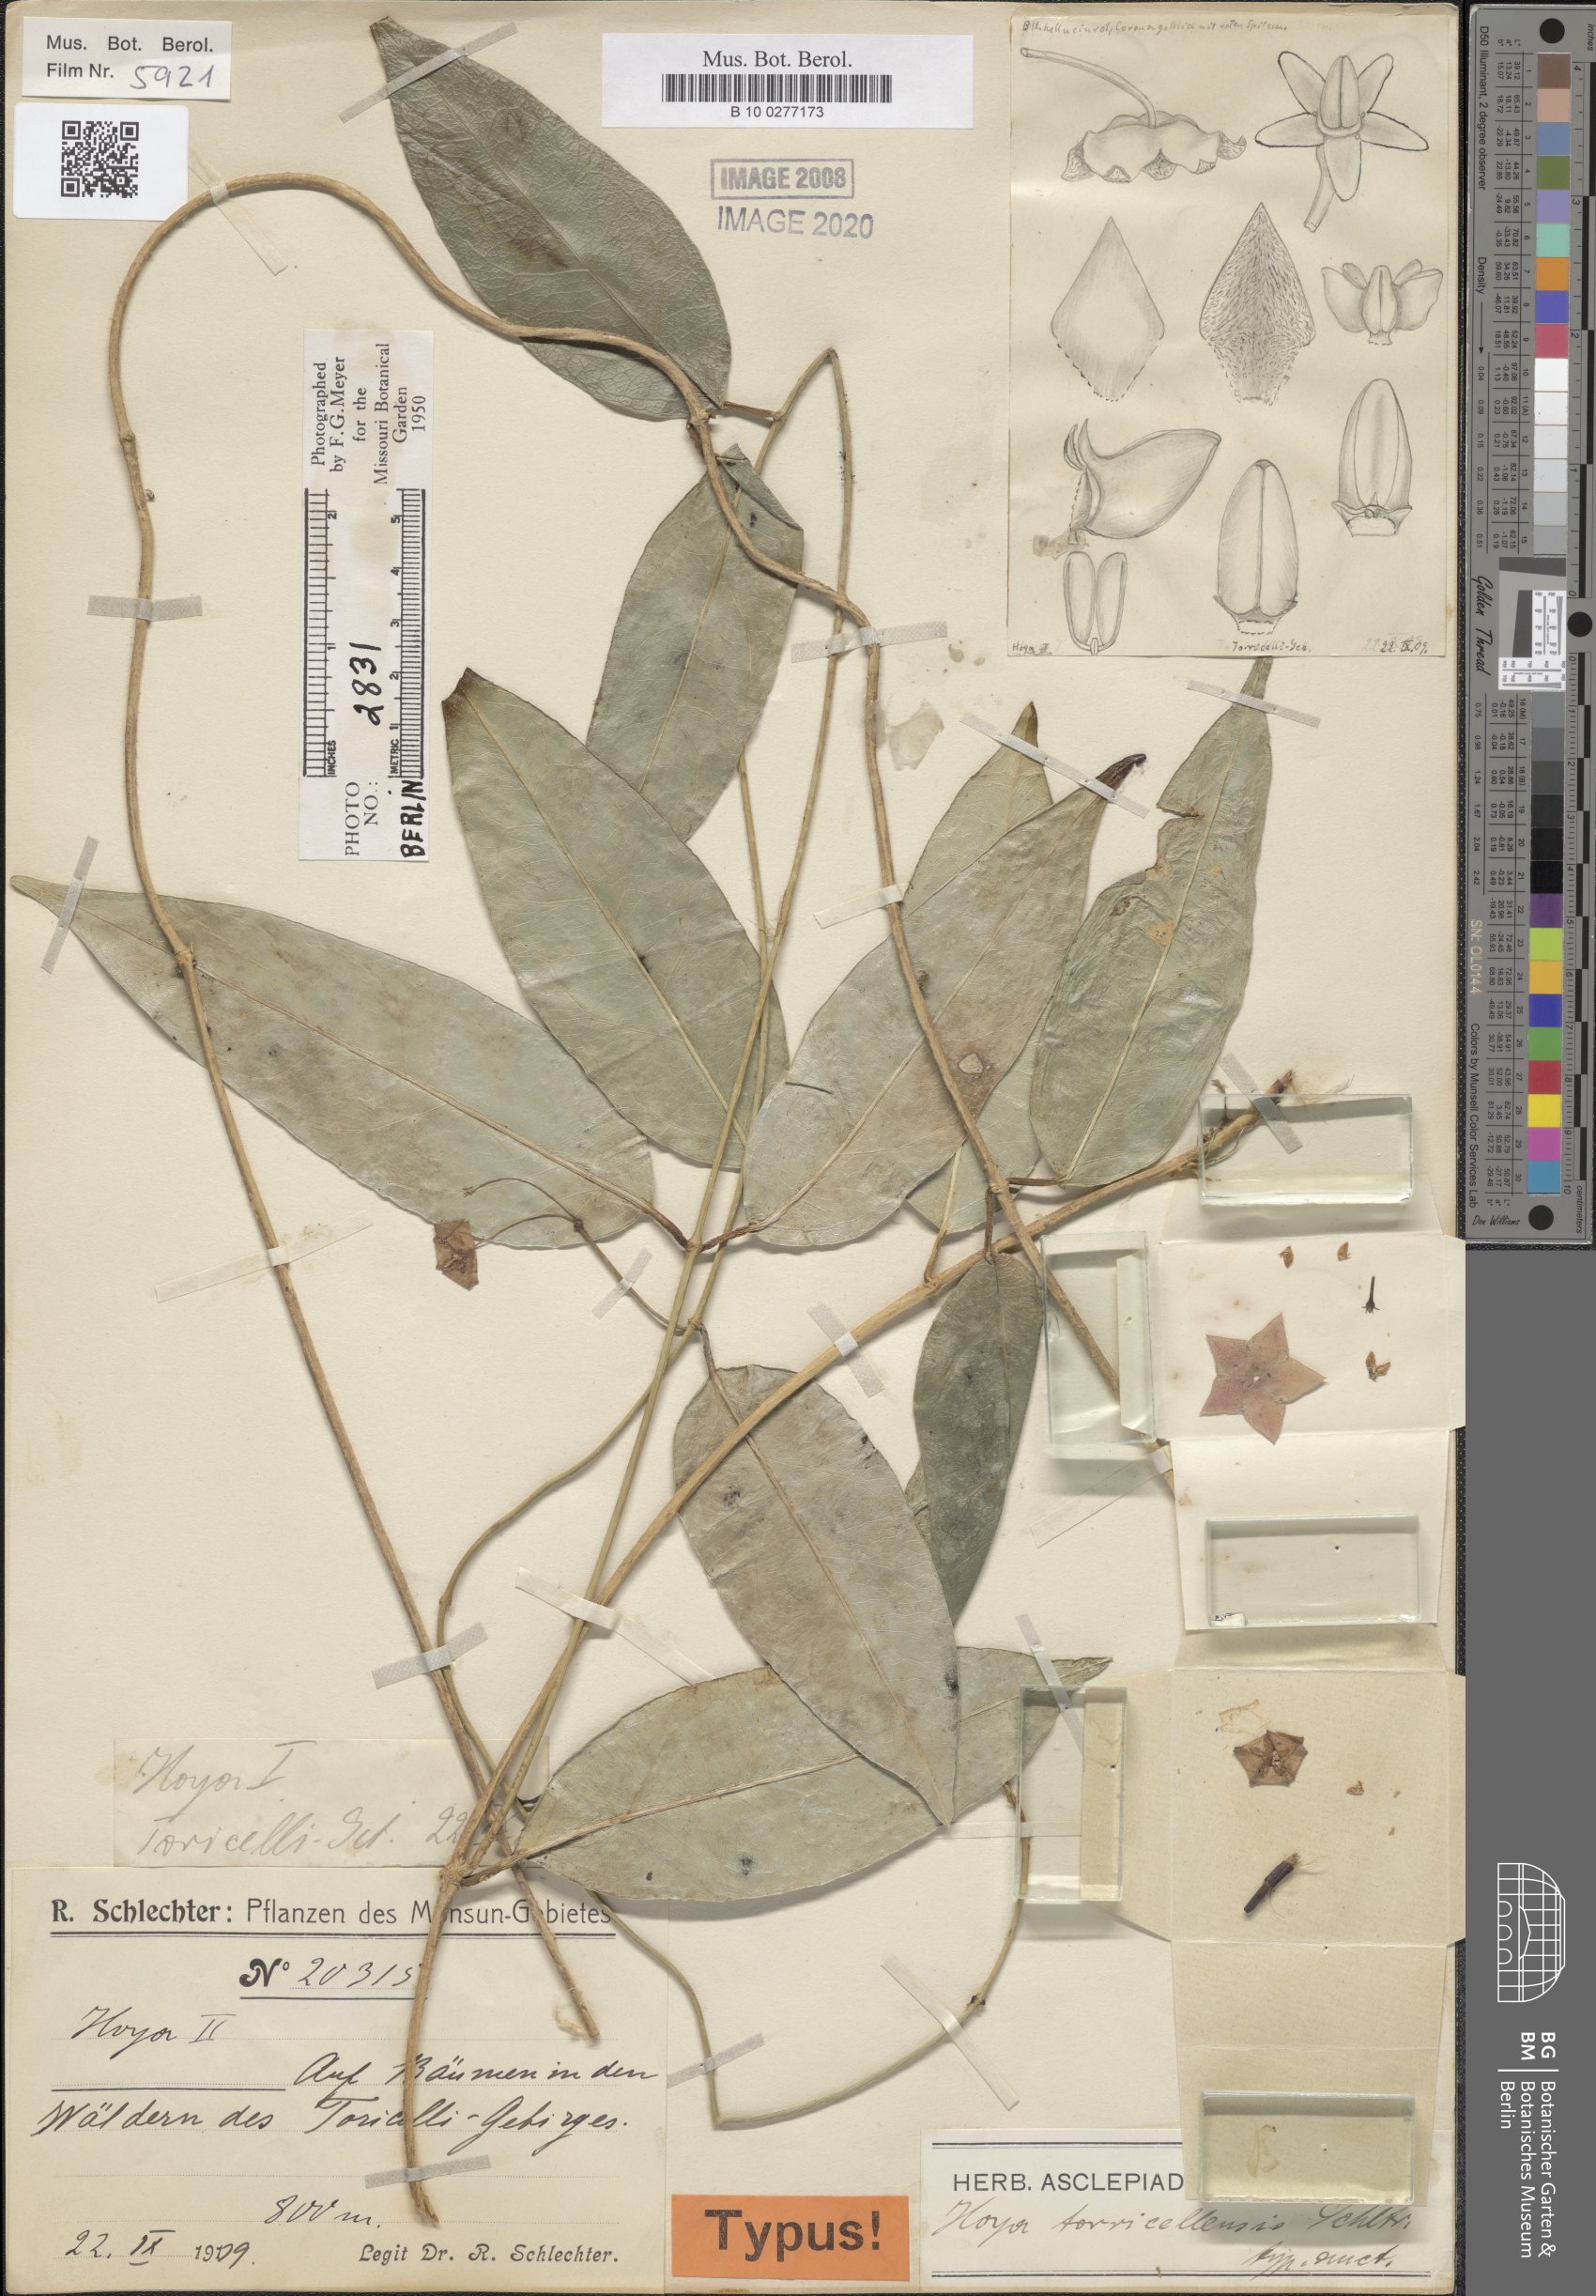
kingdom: Plantae
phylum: Tracheophyta
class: Magnoliopsida
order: Gentianales
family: Apocynaceae
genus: Hoya
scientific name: Hoya torricellensis
